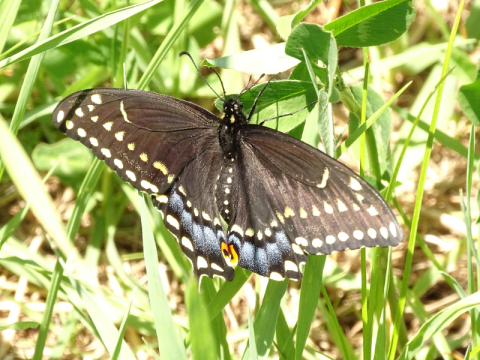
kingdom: Animalia
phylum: Arthropoda
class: Insecta
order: Lepidoptera
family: Papilionidae
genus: Papilio
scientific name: Papilio polyxenes
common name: Black Swallowtail
